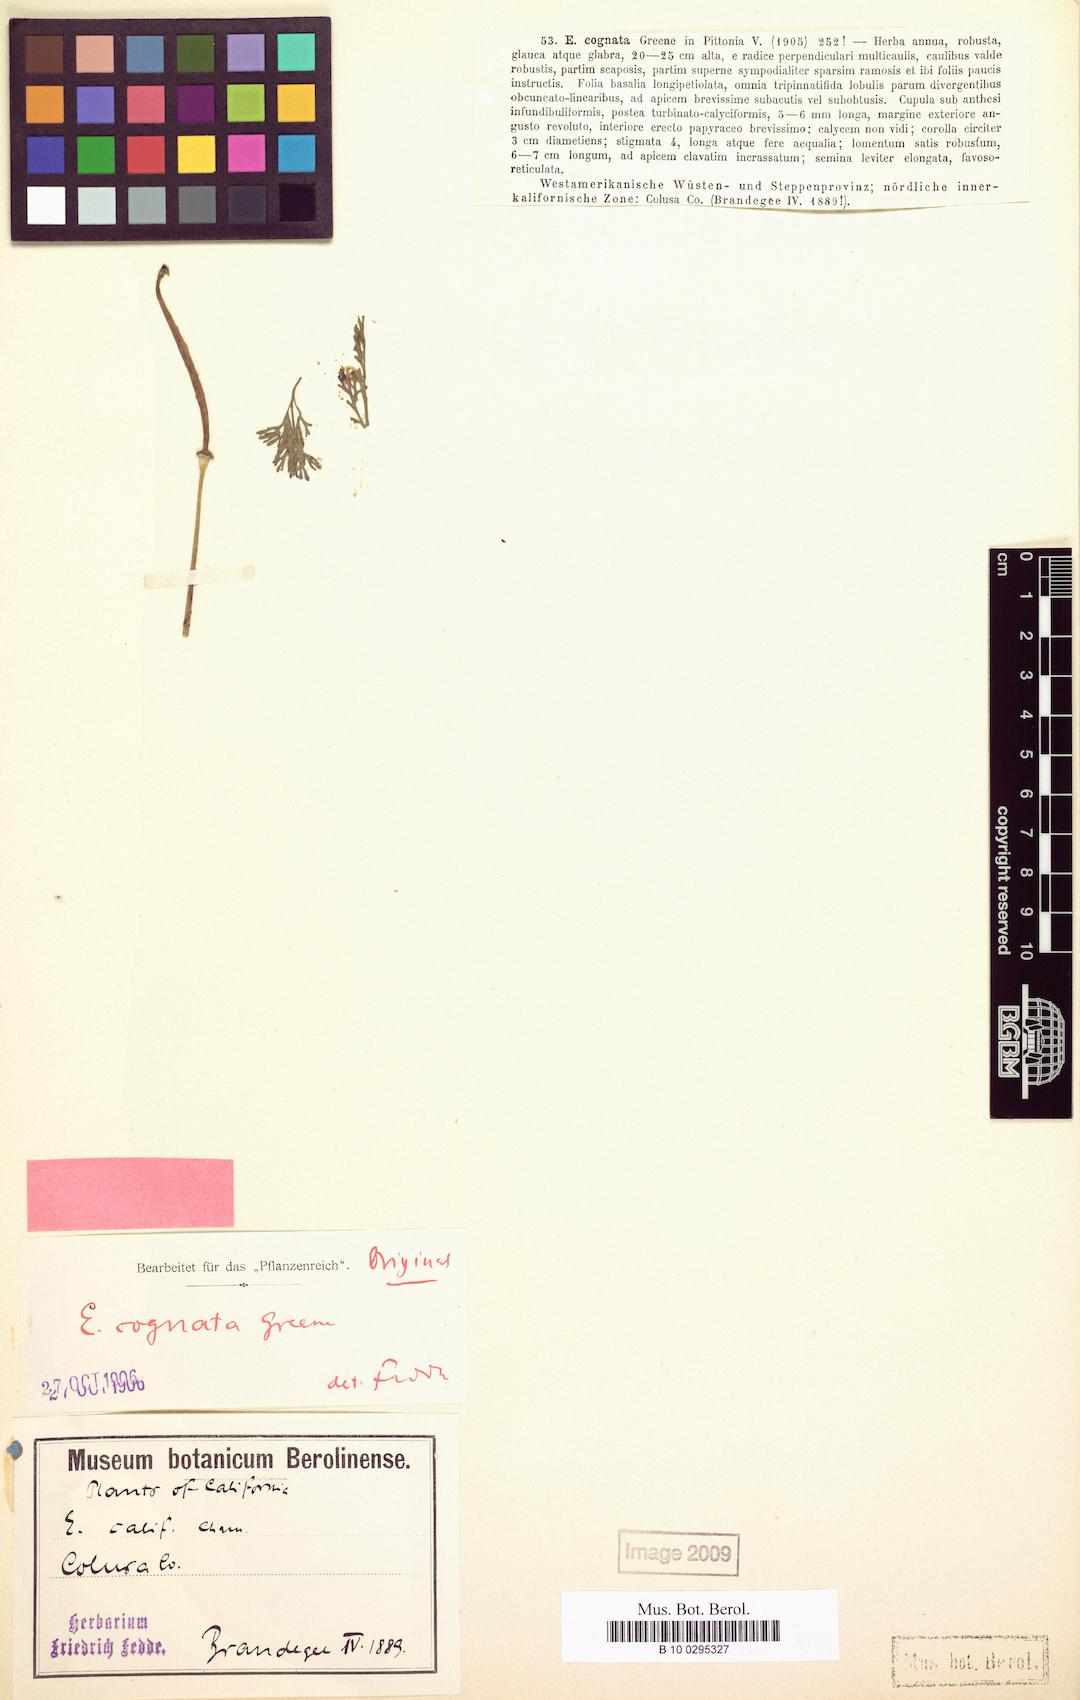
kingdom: Plantae
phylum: Tracheophyta
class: Magnoliopsida
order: Ranunculales
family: Papaveraceae
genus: Eschscholzia
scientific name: Eschscholzia californica
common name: California poppy
